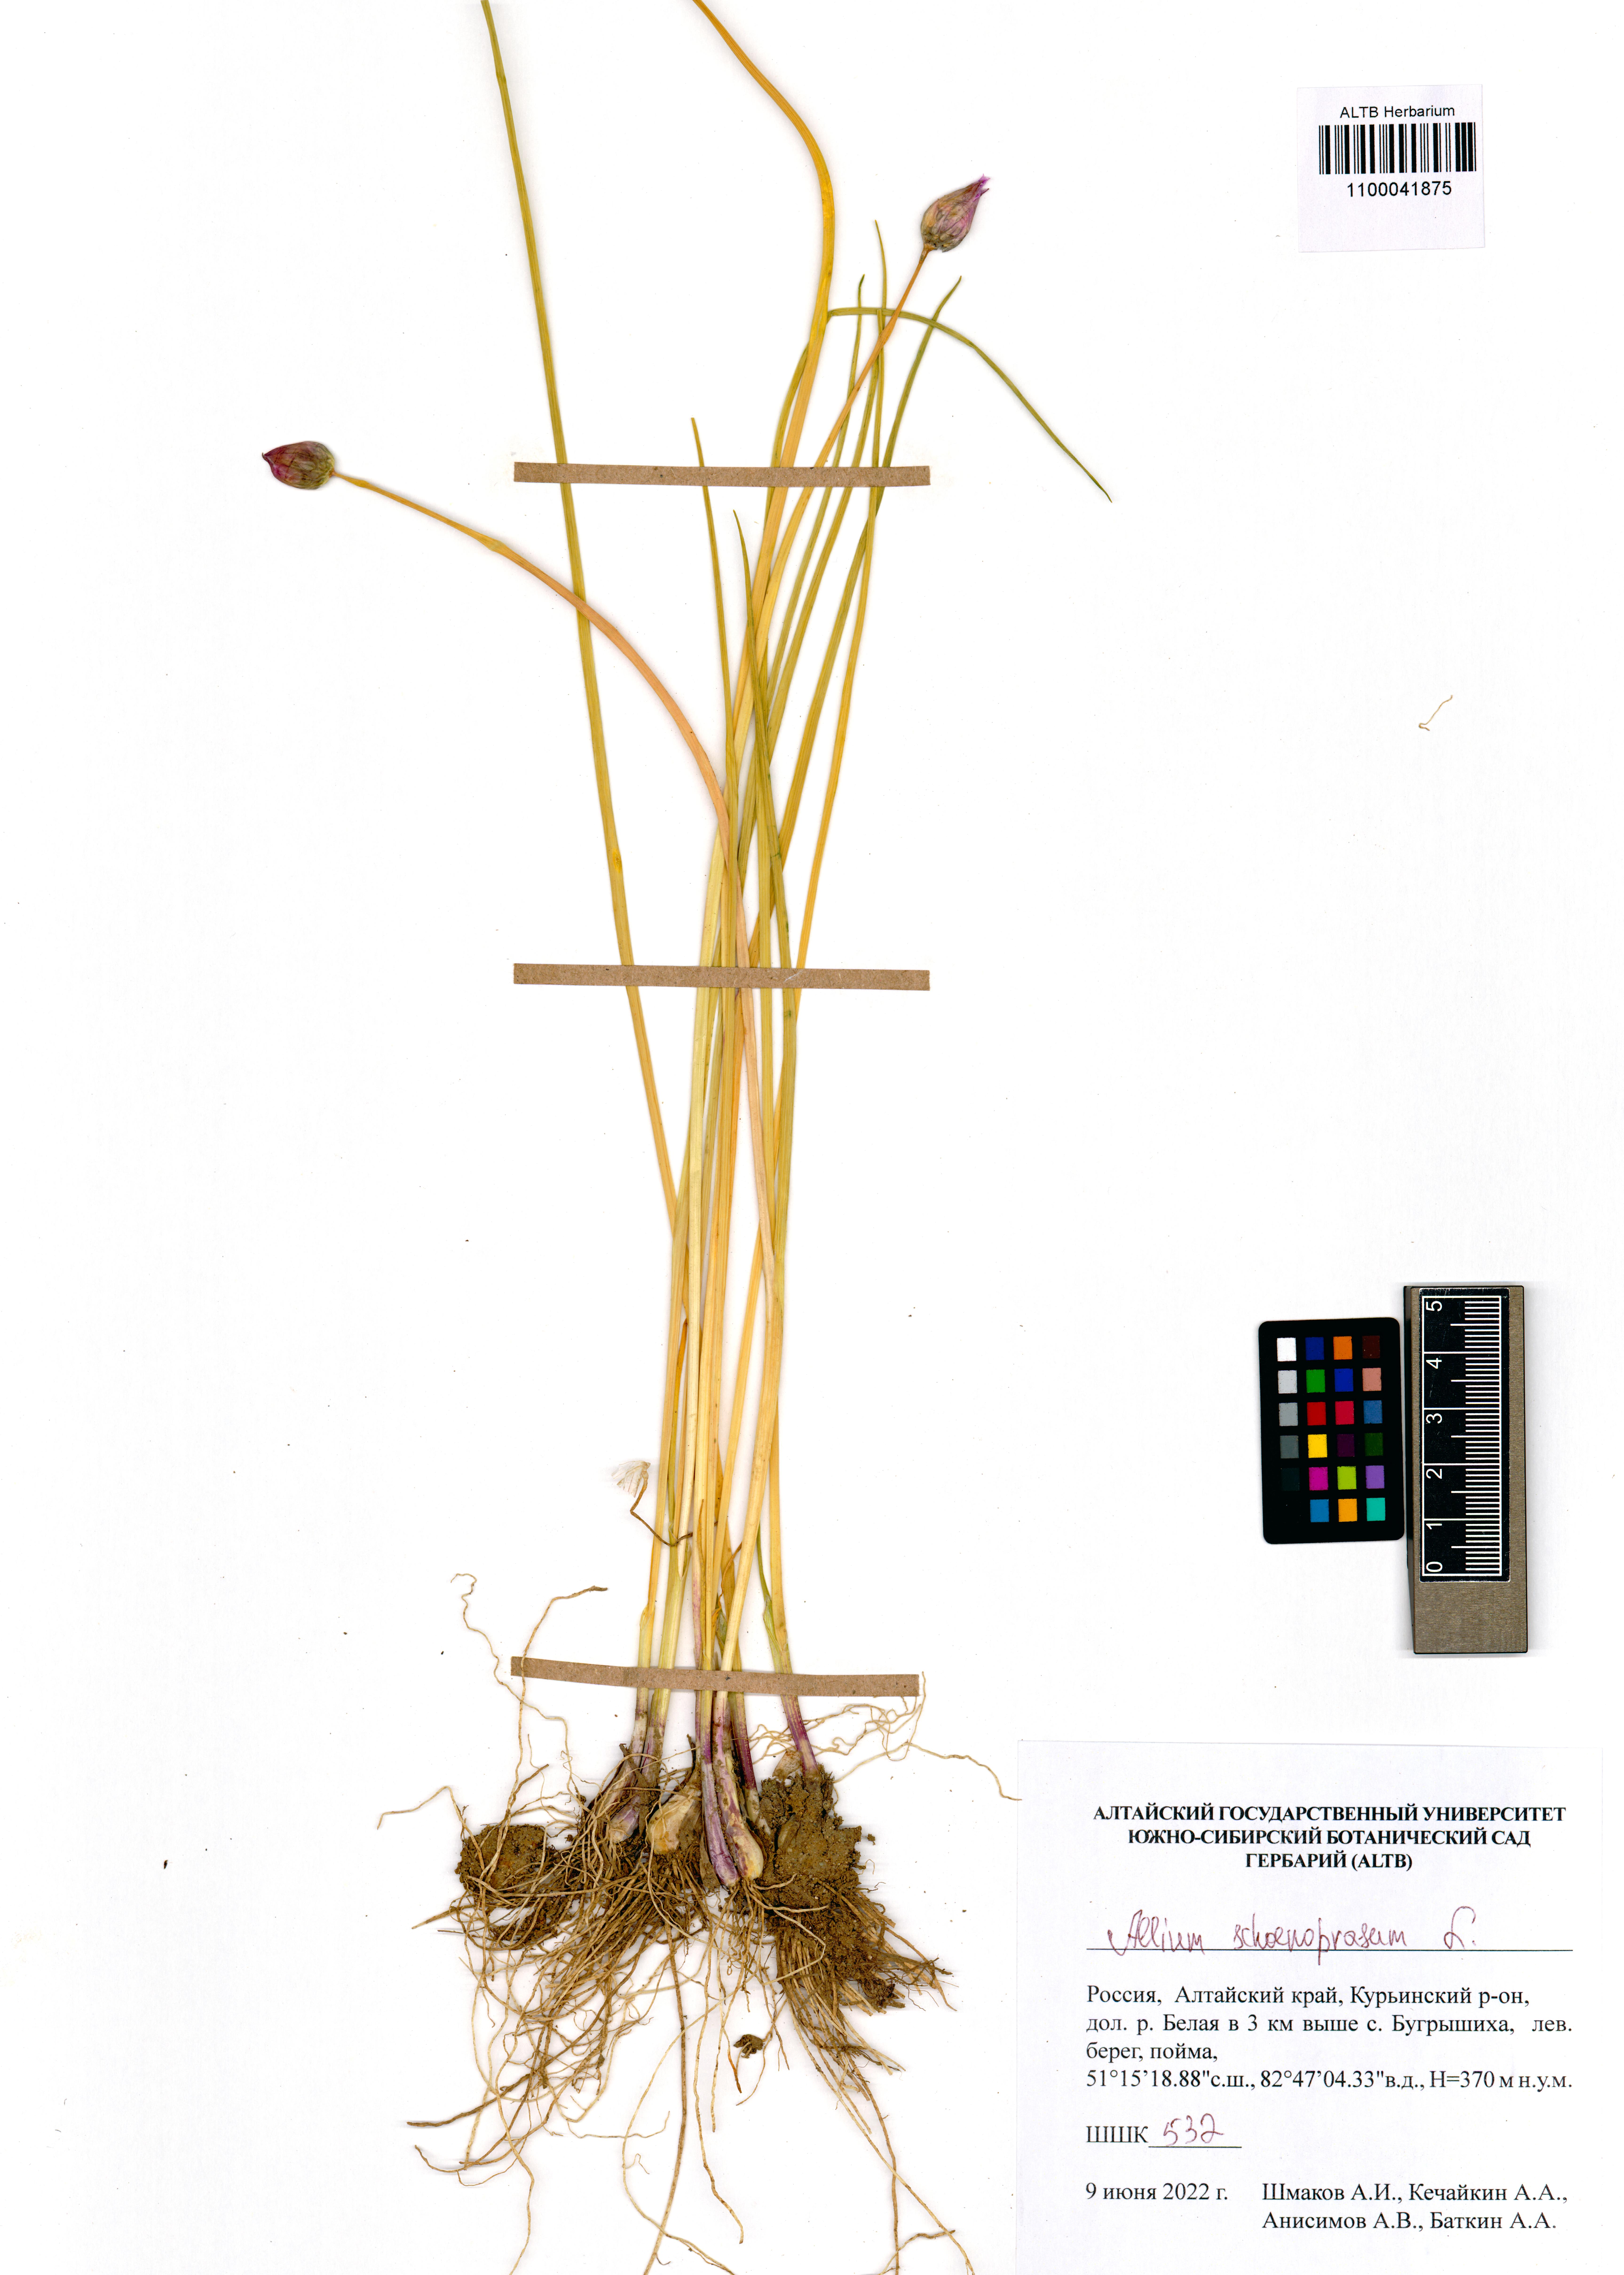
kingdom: Plantae
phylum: Tracheophyta
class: Liliopsida
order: Asparagales
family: Amaryllidaceae
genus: Allium
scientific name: Allium schoenoprasum
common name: Chives
